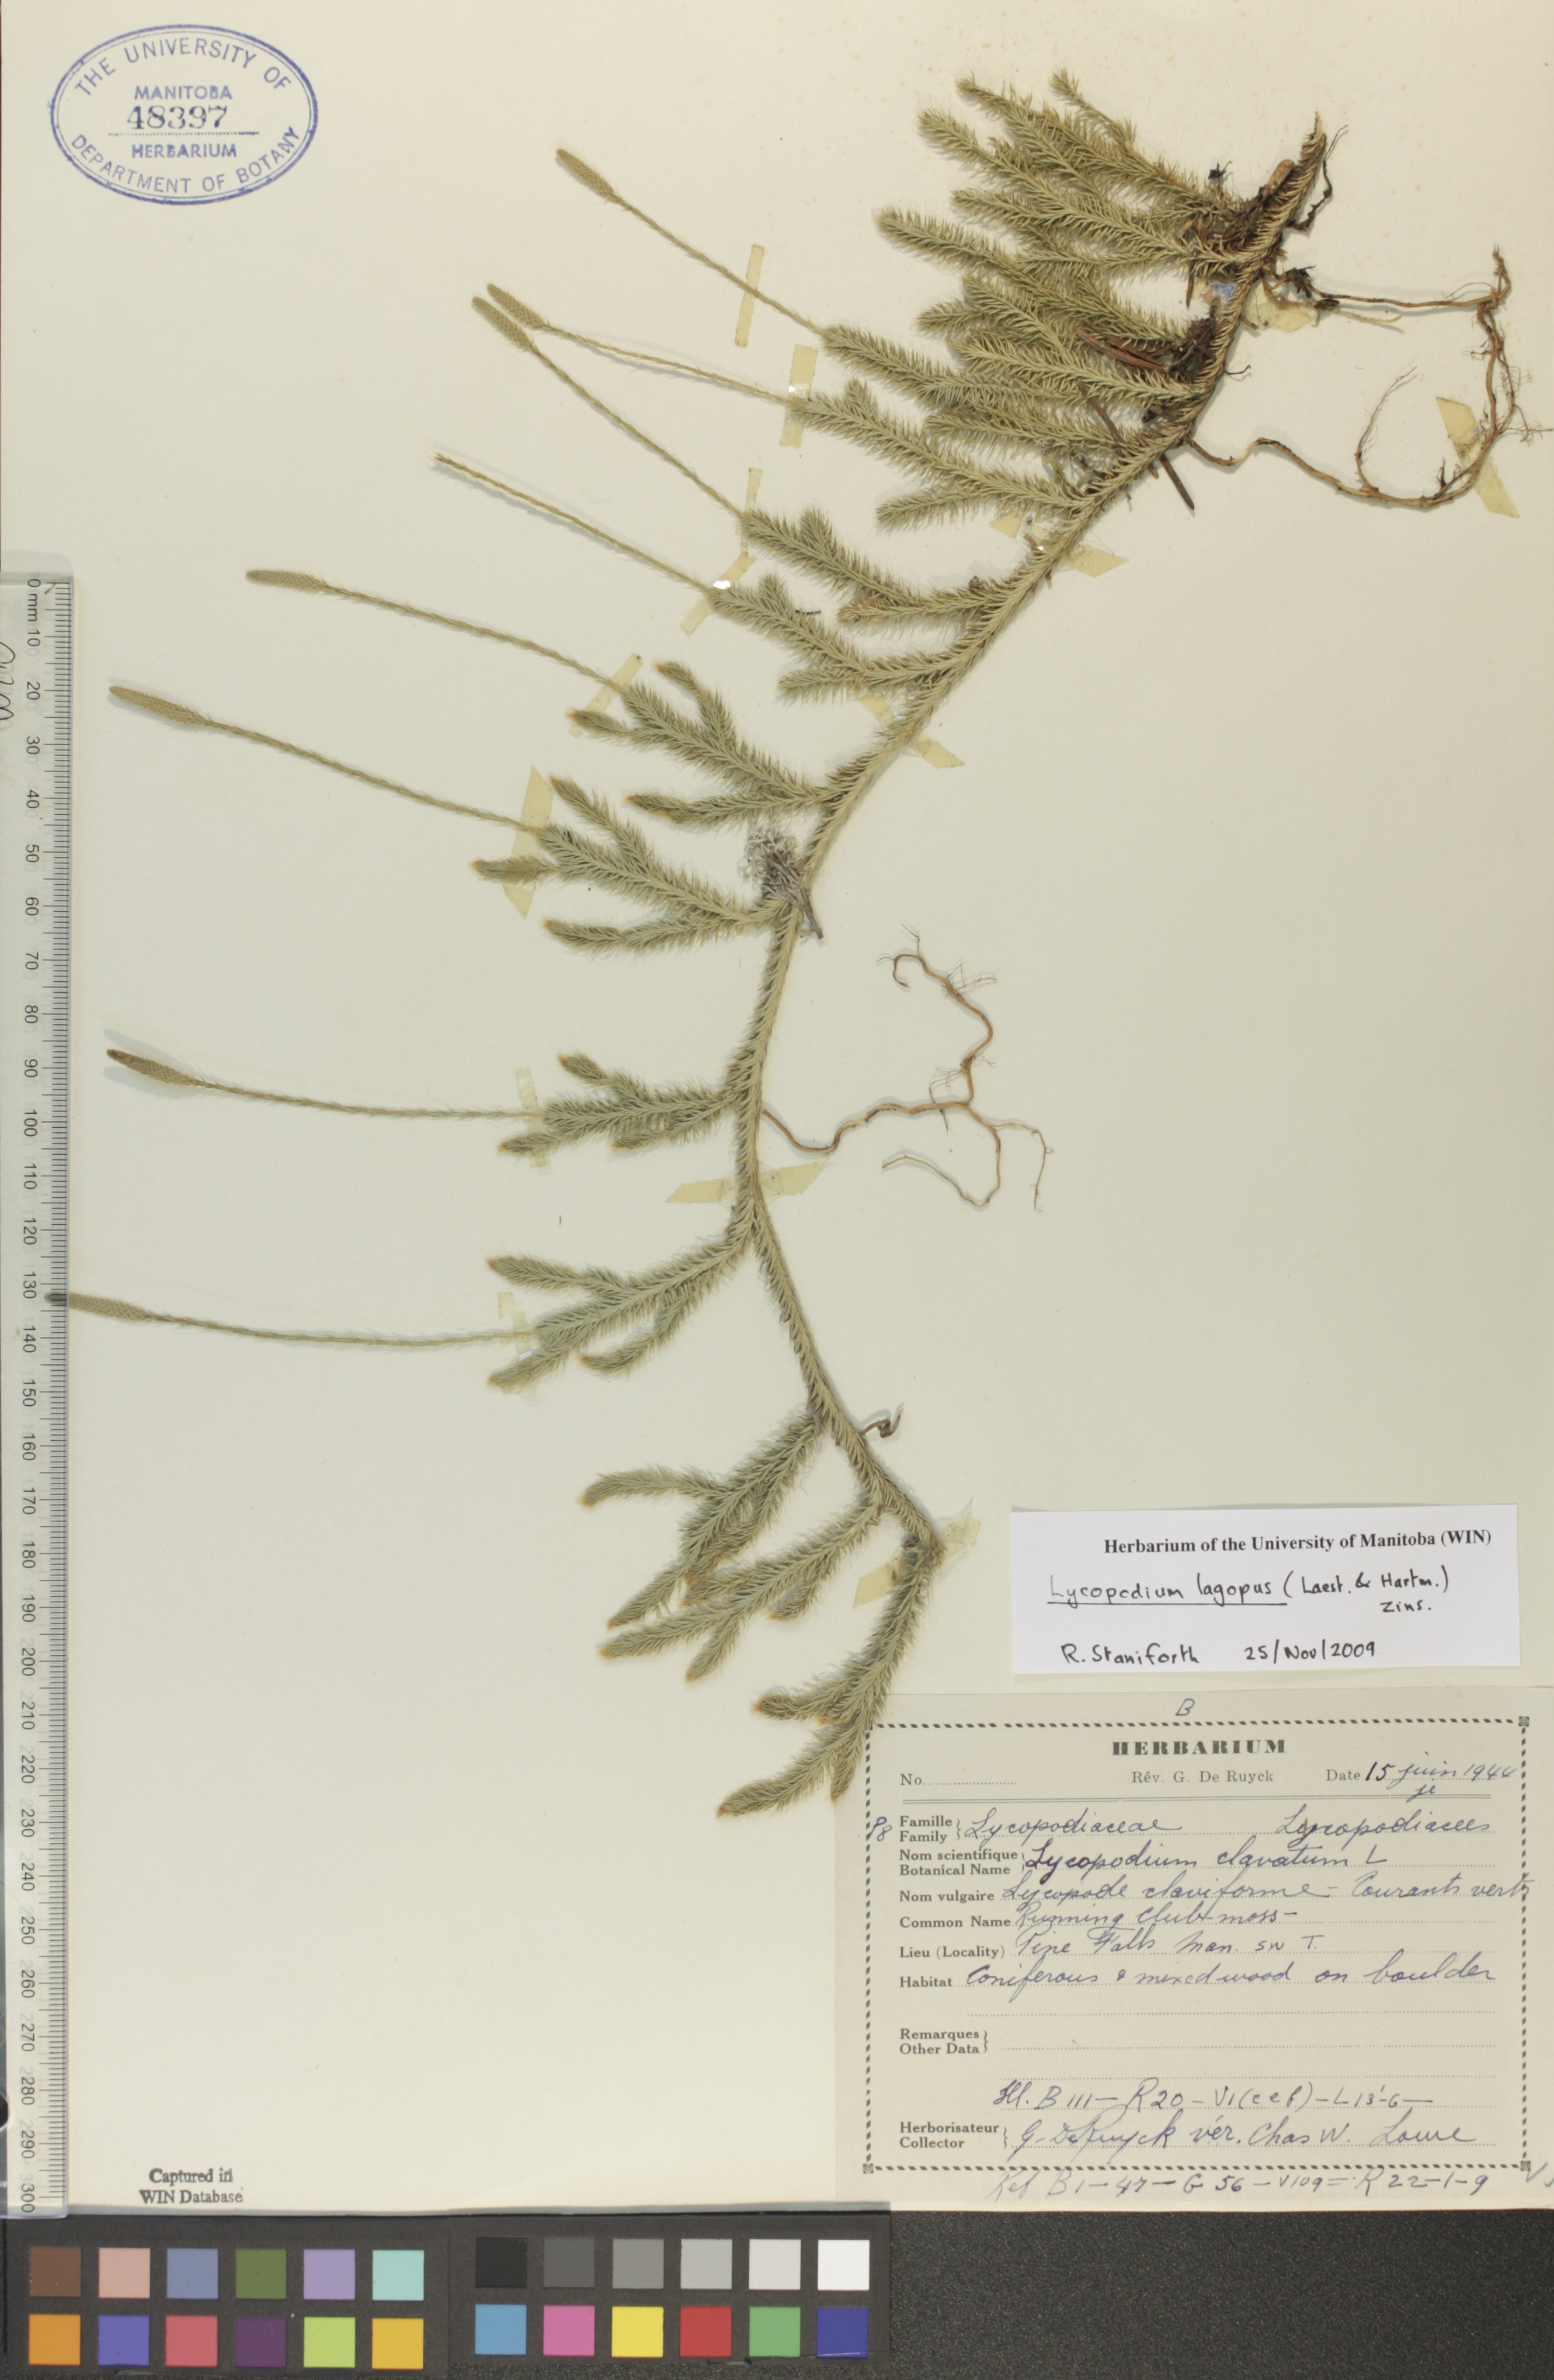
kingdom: Plantae
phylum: Tracheophyta
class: Lycopodiopsida
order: Lycopodiales
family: Lycopodiaceae
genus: Lycopodium
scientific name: Lycopodium lagopus
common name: One-cone clubmoss
